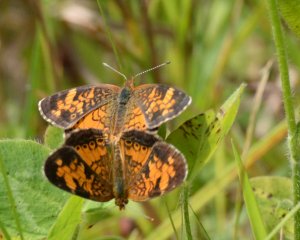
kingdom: Animalia
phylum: Arthropoda
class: Insecta
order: Lepidoptera
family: Nymphalidae
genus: Phyciodes
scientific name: Phyciodes tharos
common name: Northern Crescent
